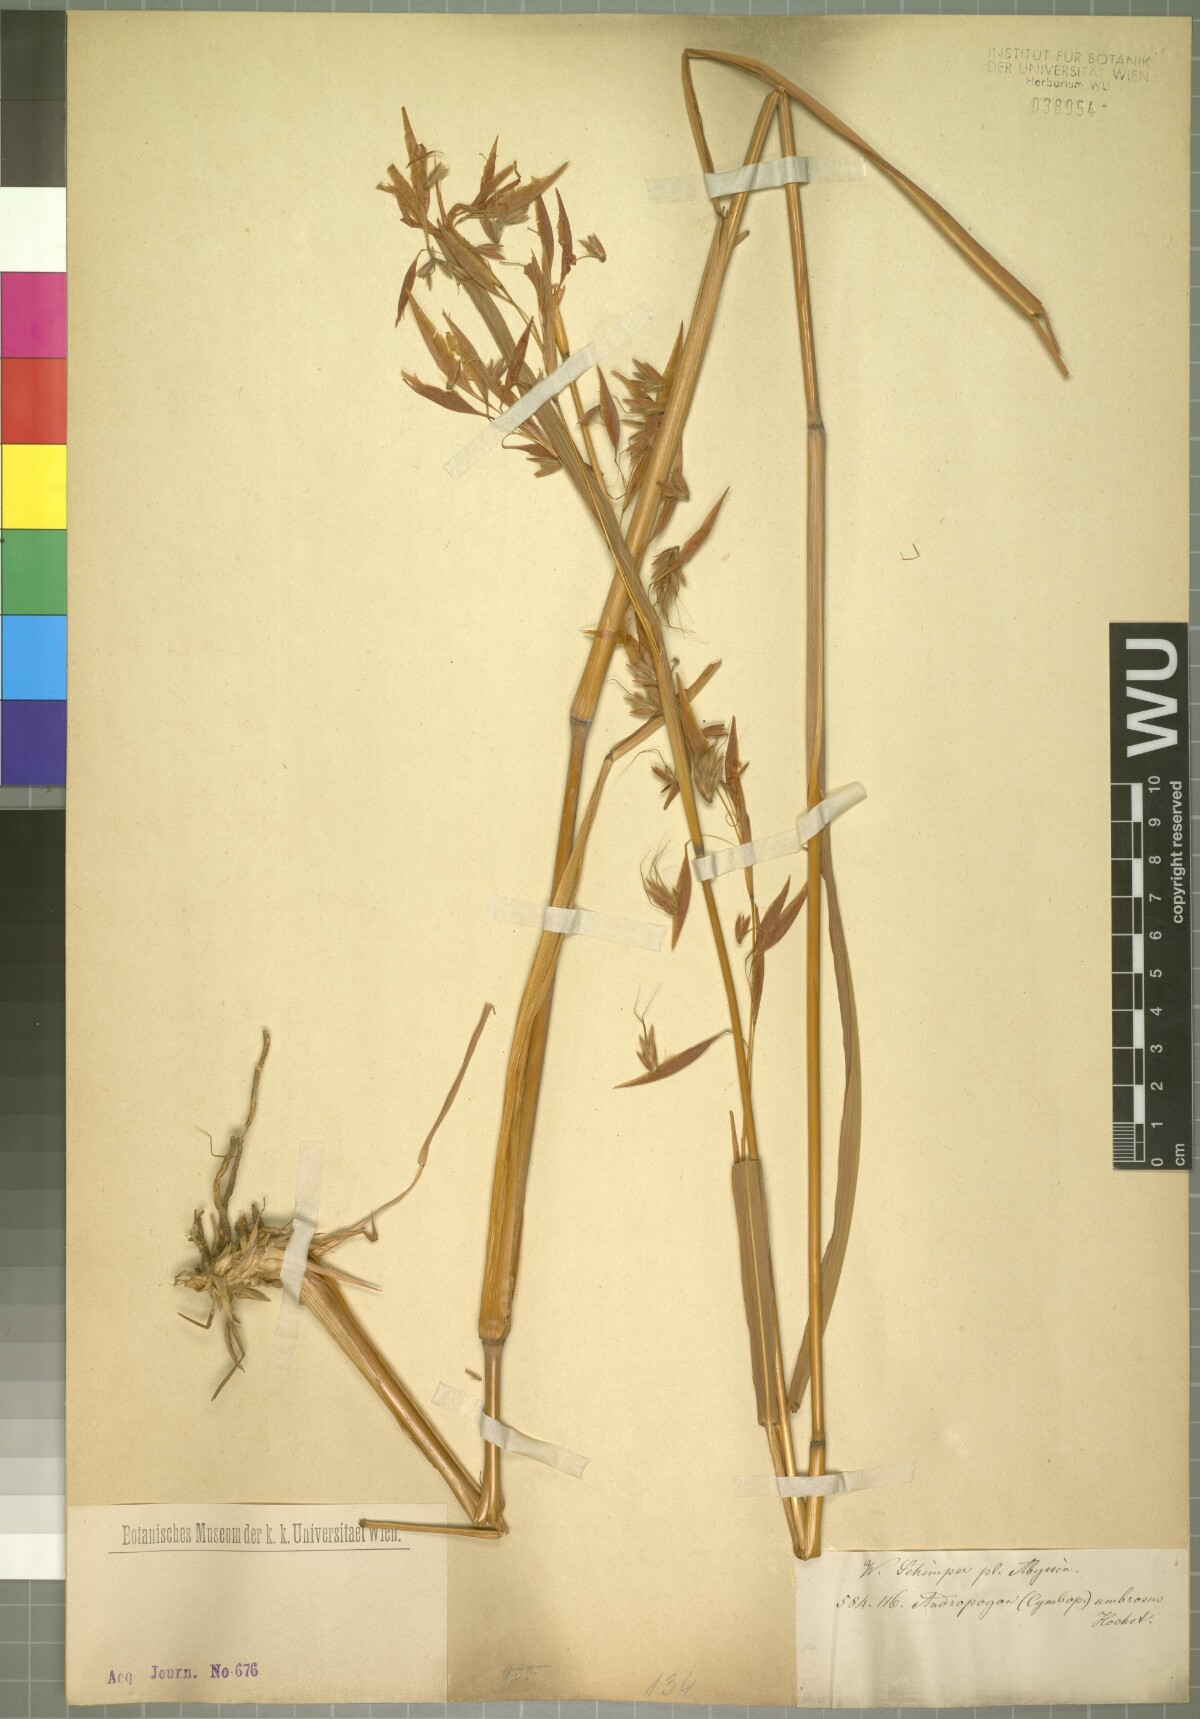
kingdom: Plantae
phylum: Tracheophyta
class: Liliopsida
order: Poales
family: Poaceae
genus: Hyparrhenia
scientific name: Hyparrhenia umbrosa
